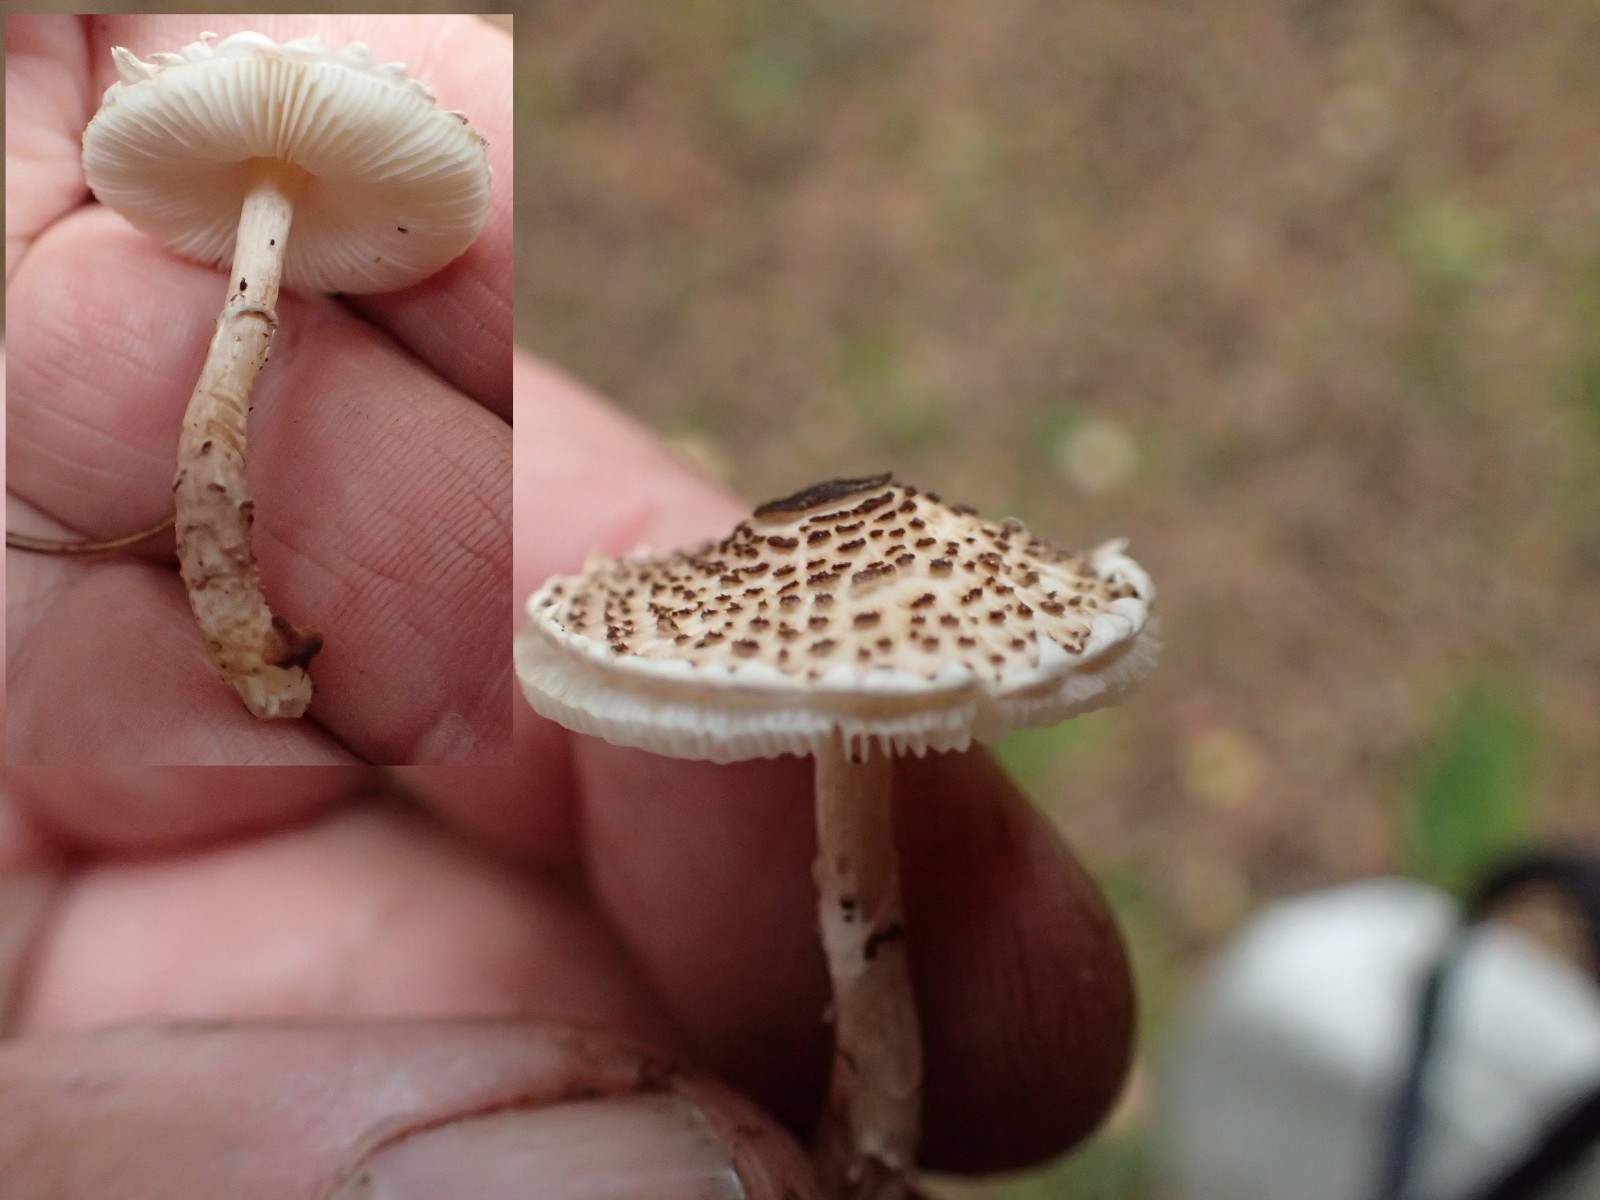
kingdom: Fungi
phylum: Basidiomycota
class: Agaricomycetes
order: Agaricales
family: Agaricaceae
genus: Lepiota
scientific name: Lepiota felina
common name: sortskællet parasolhat
